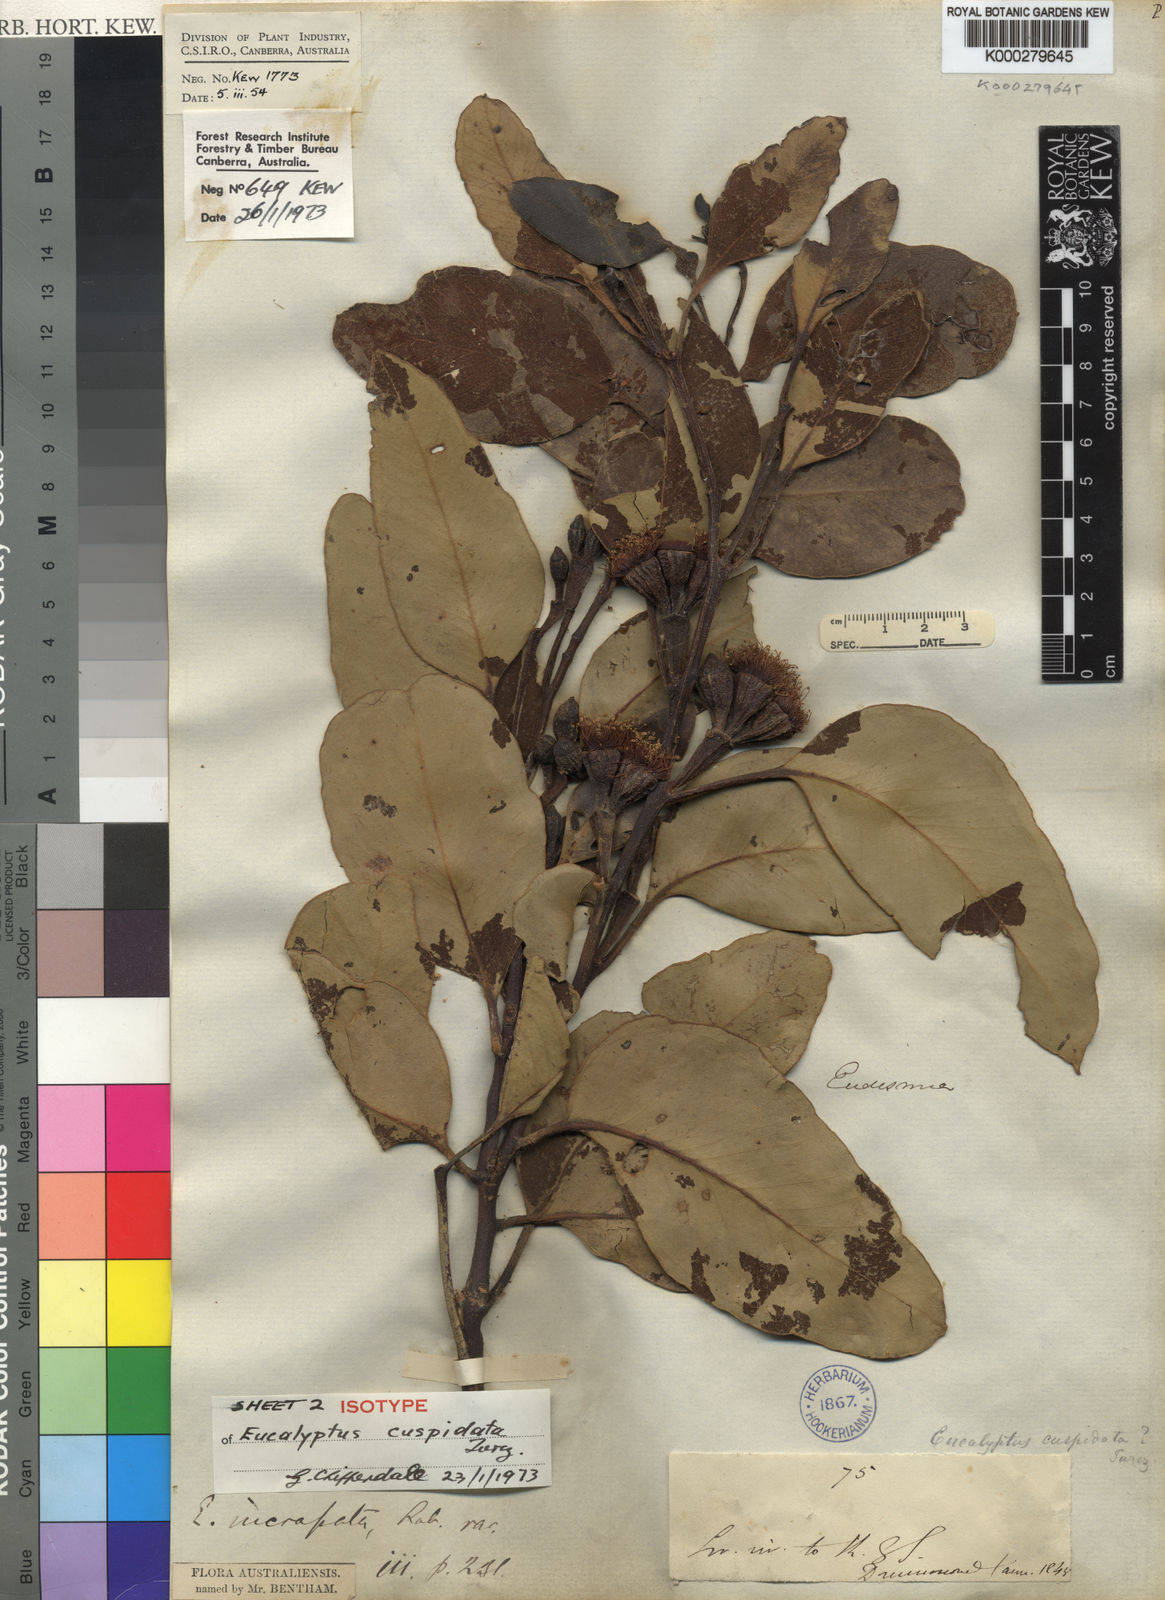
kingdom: Plantae
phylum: Tracheophyta
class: Magnoliopsida
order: Myrtales
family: Myrtaceae
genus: Eucalyptus
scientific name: Eucalyptus angulosa
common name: Ridge-fruited mallee
